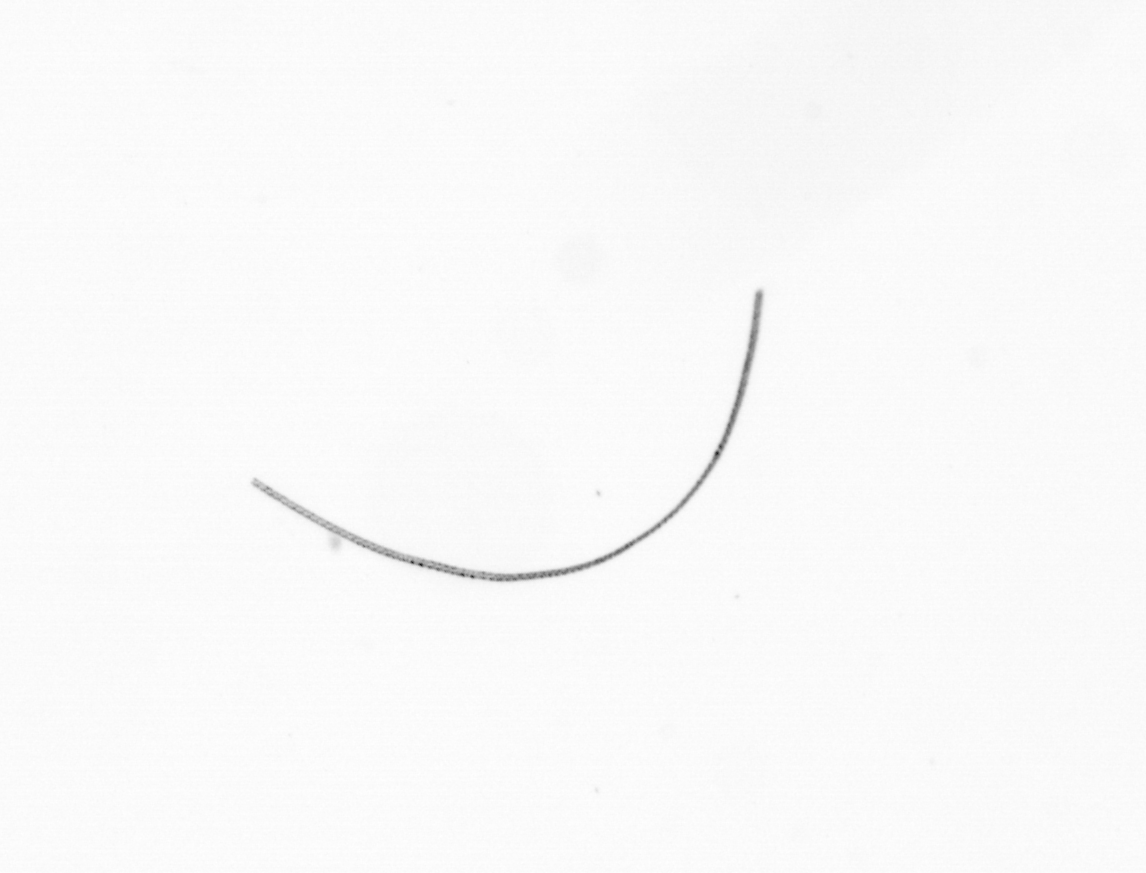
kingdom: Chromista
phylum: Ochrophyta
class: Bacillariophyceae
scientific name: Bacillariophyceae
